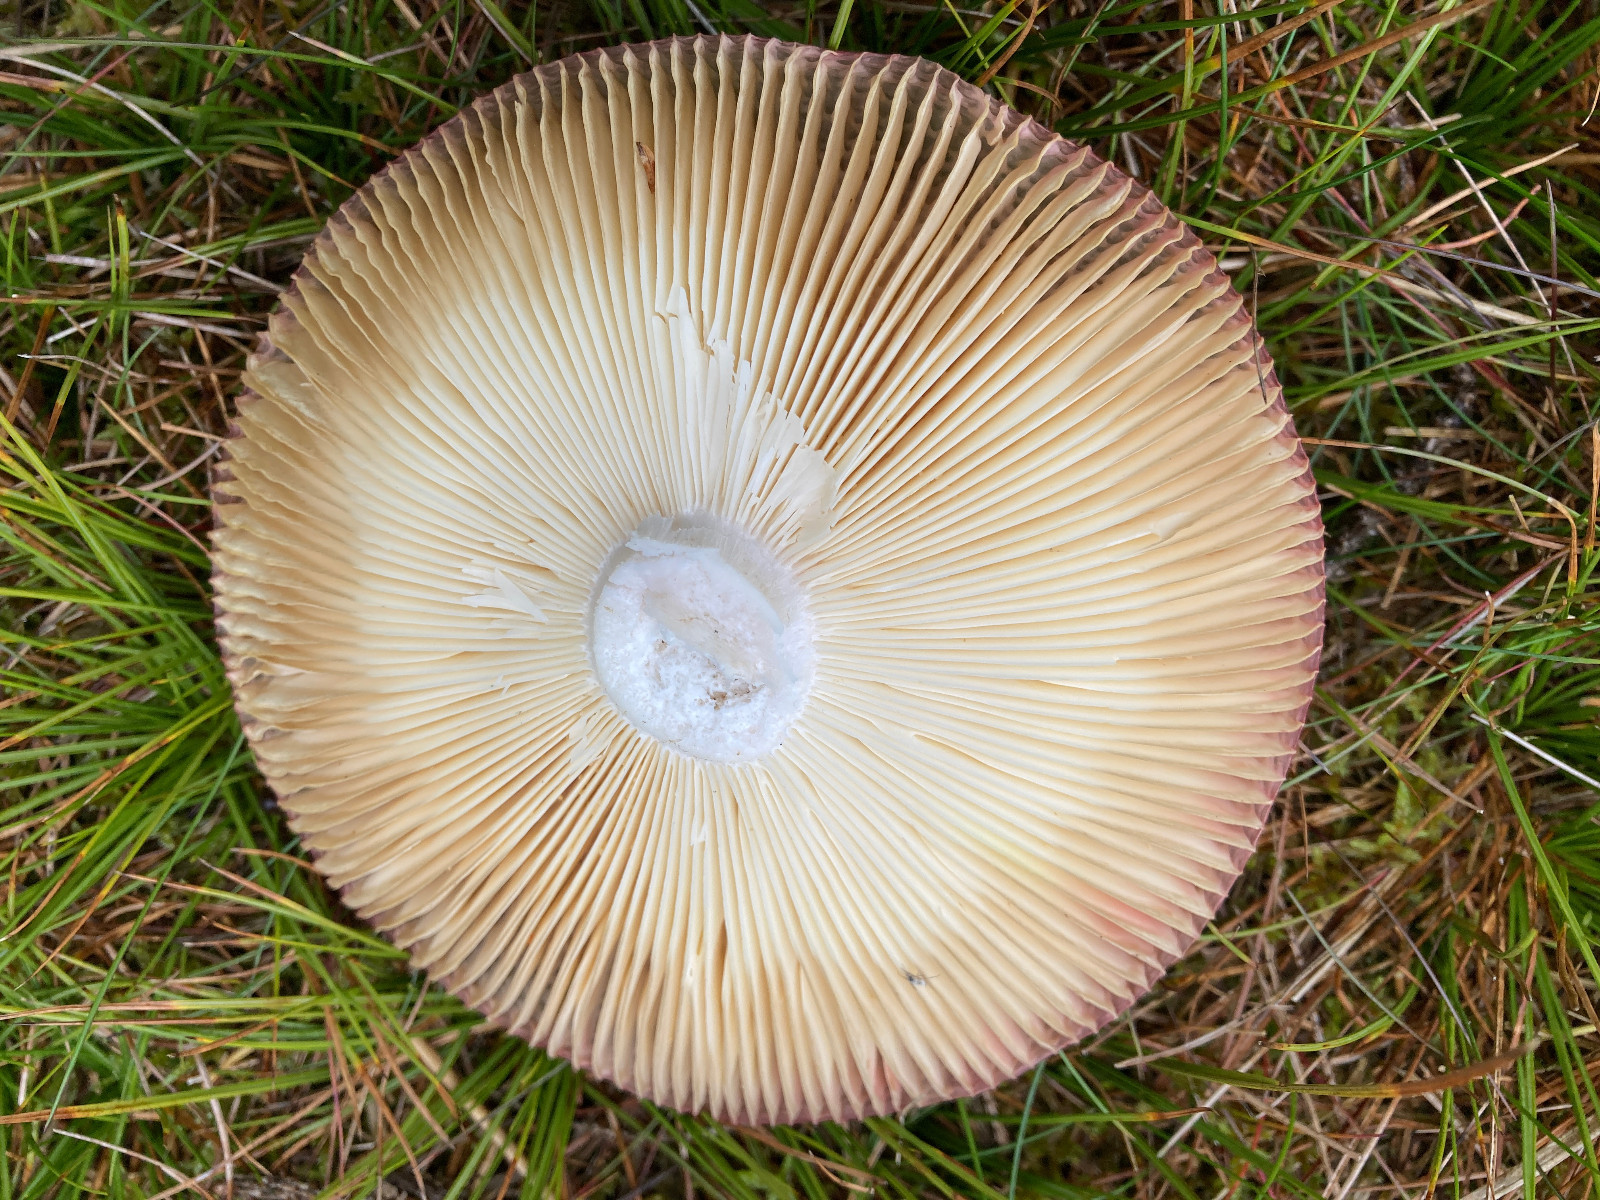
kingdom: Fungi
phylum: Basidiomycota
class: Agaricomycetes
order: Russulales
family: Russulaceae
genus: Russula
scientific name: Russula
